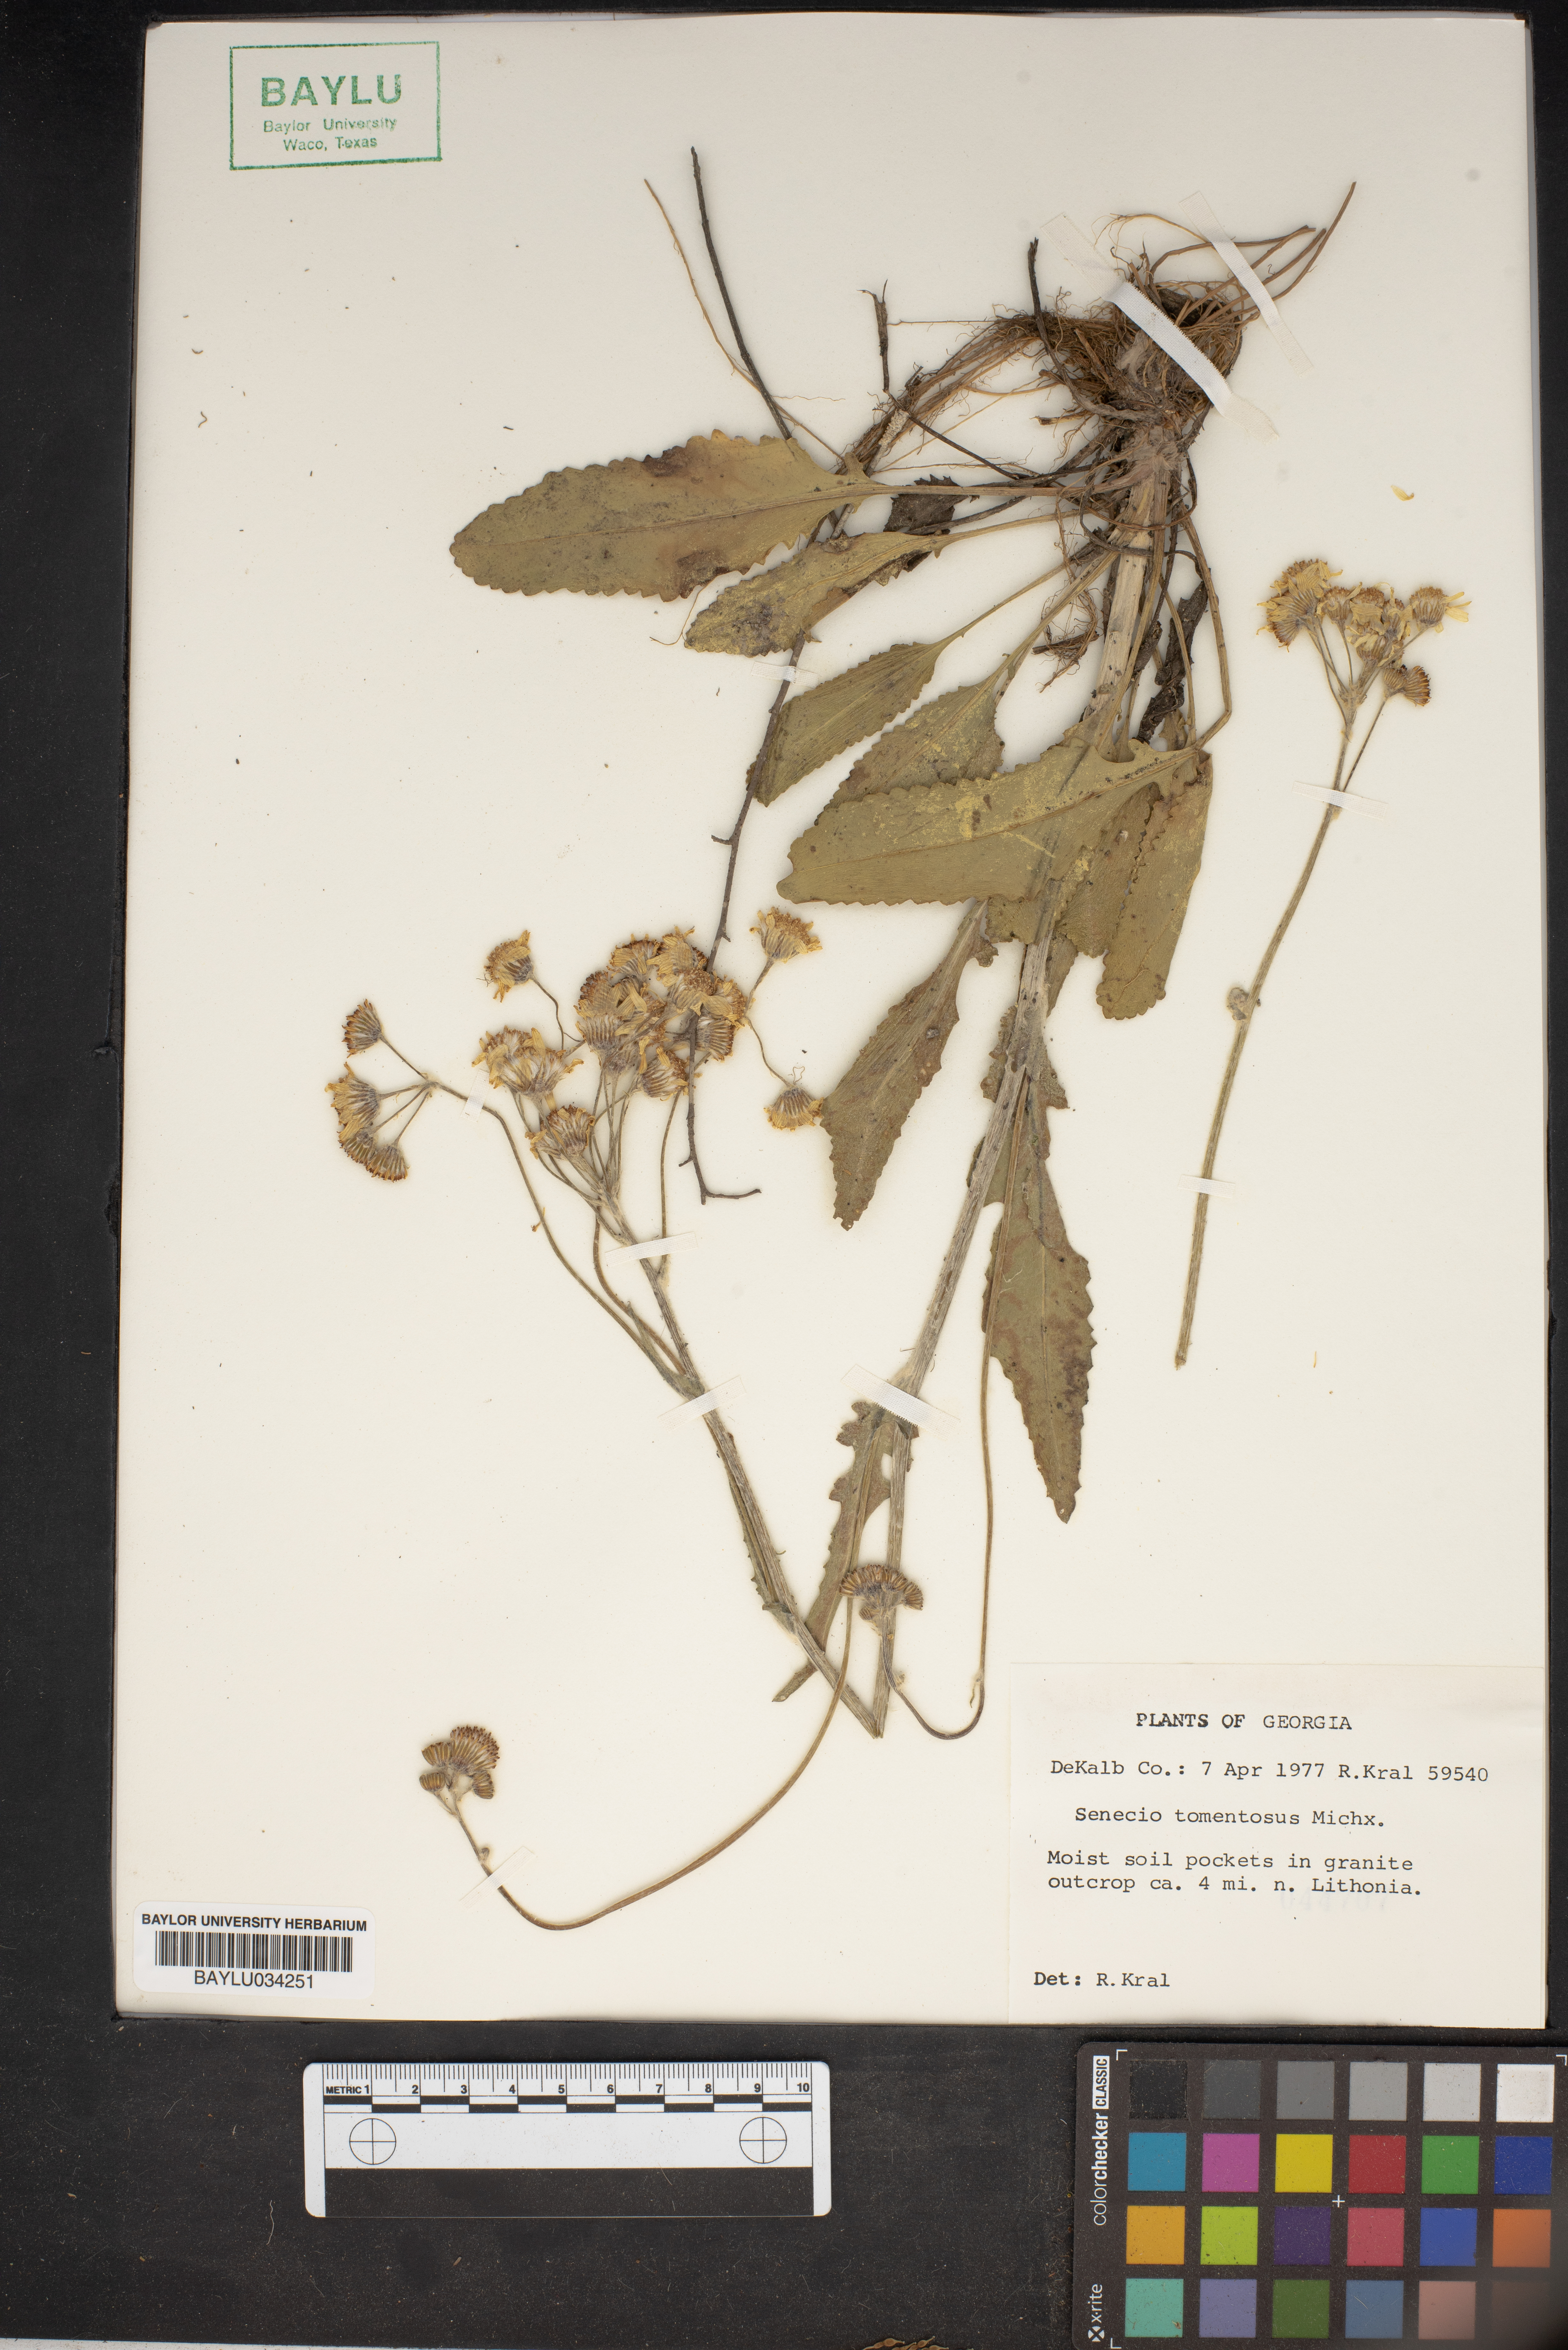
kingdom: Plantae
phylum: Tracheophyta
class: Magnoliopsida
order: Asterales
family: Asteraceae
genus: Senecio
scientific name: Senecio cinerascens
